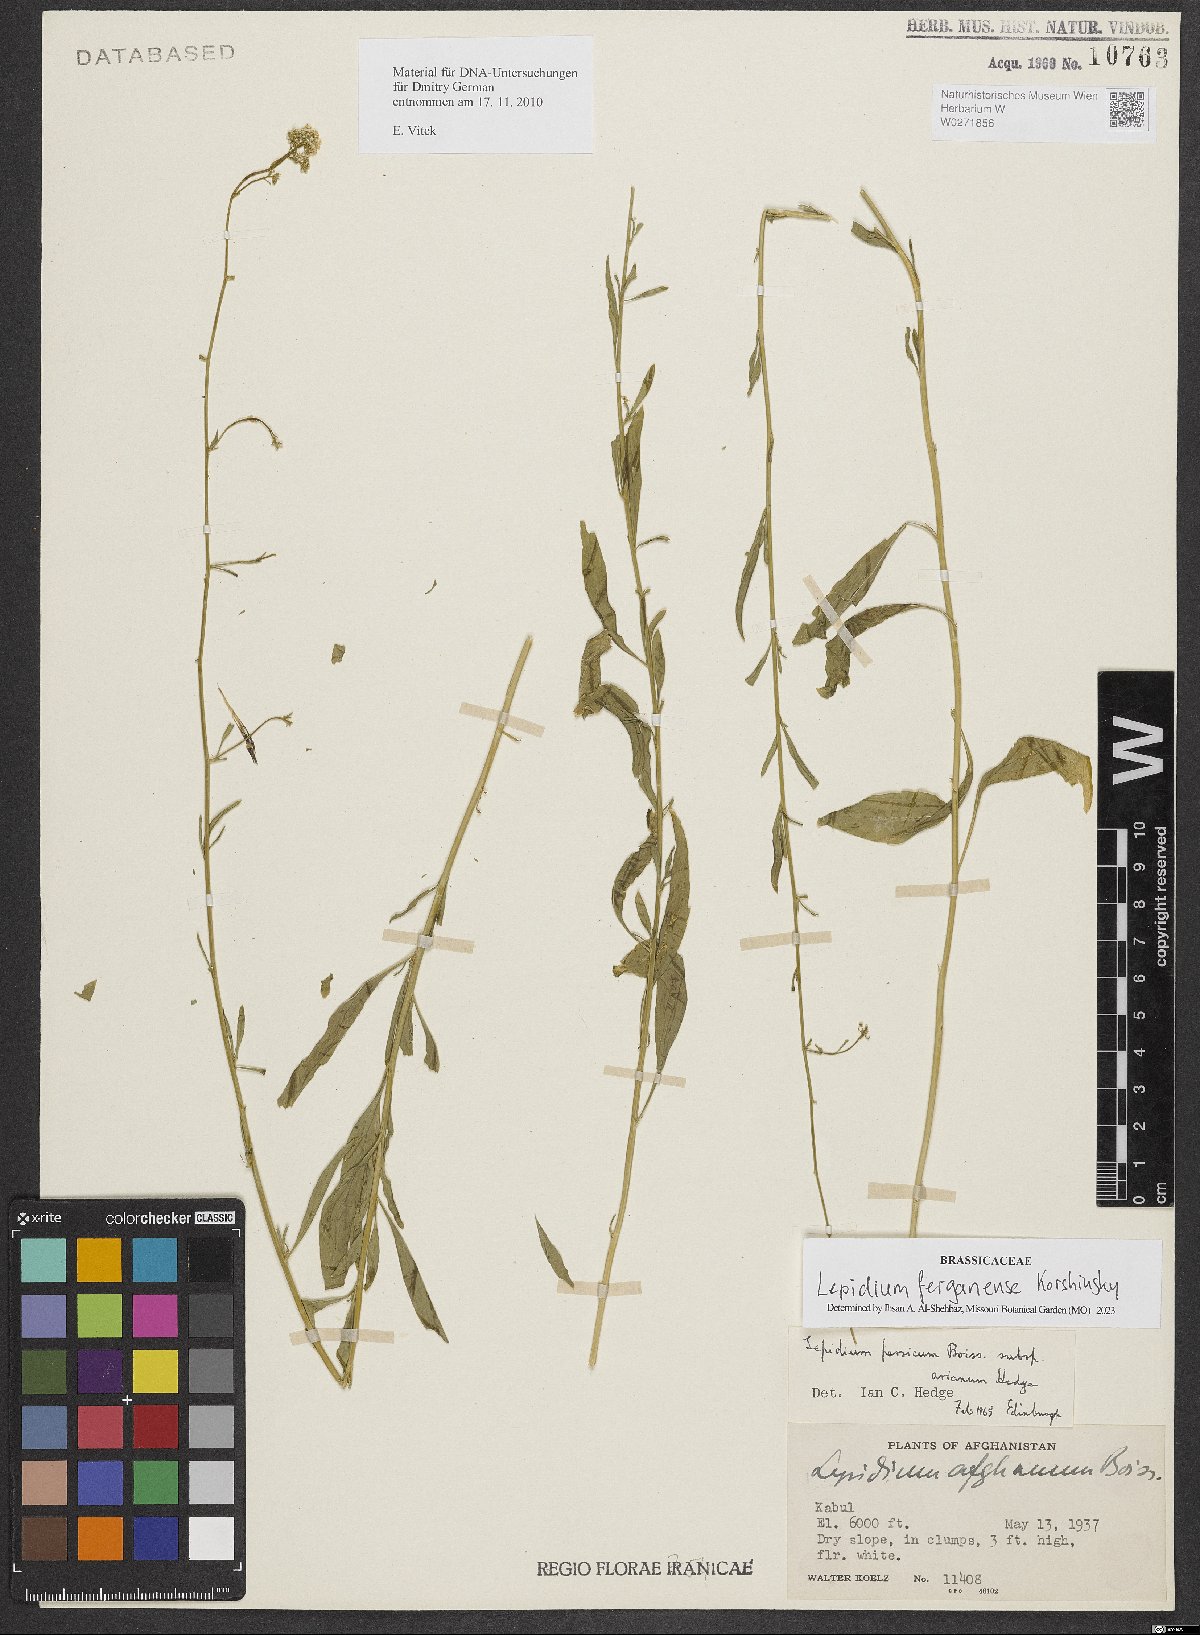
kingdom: Plantae
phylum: Tracheophyta
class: Magnoliopsida
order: Brassicales
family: Brassicaceae
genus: Lepidium
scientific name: Lepidium ferganense
